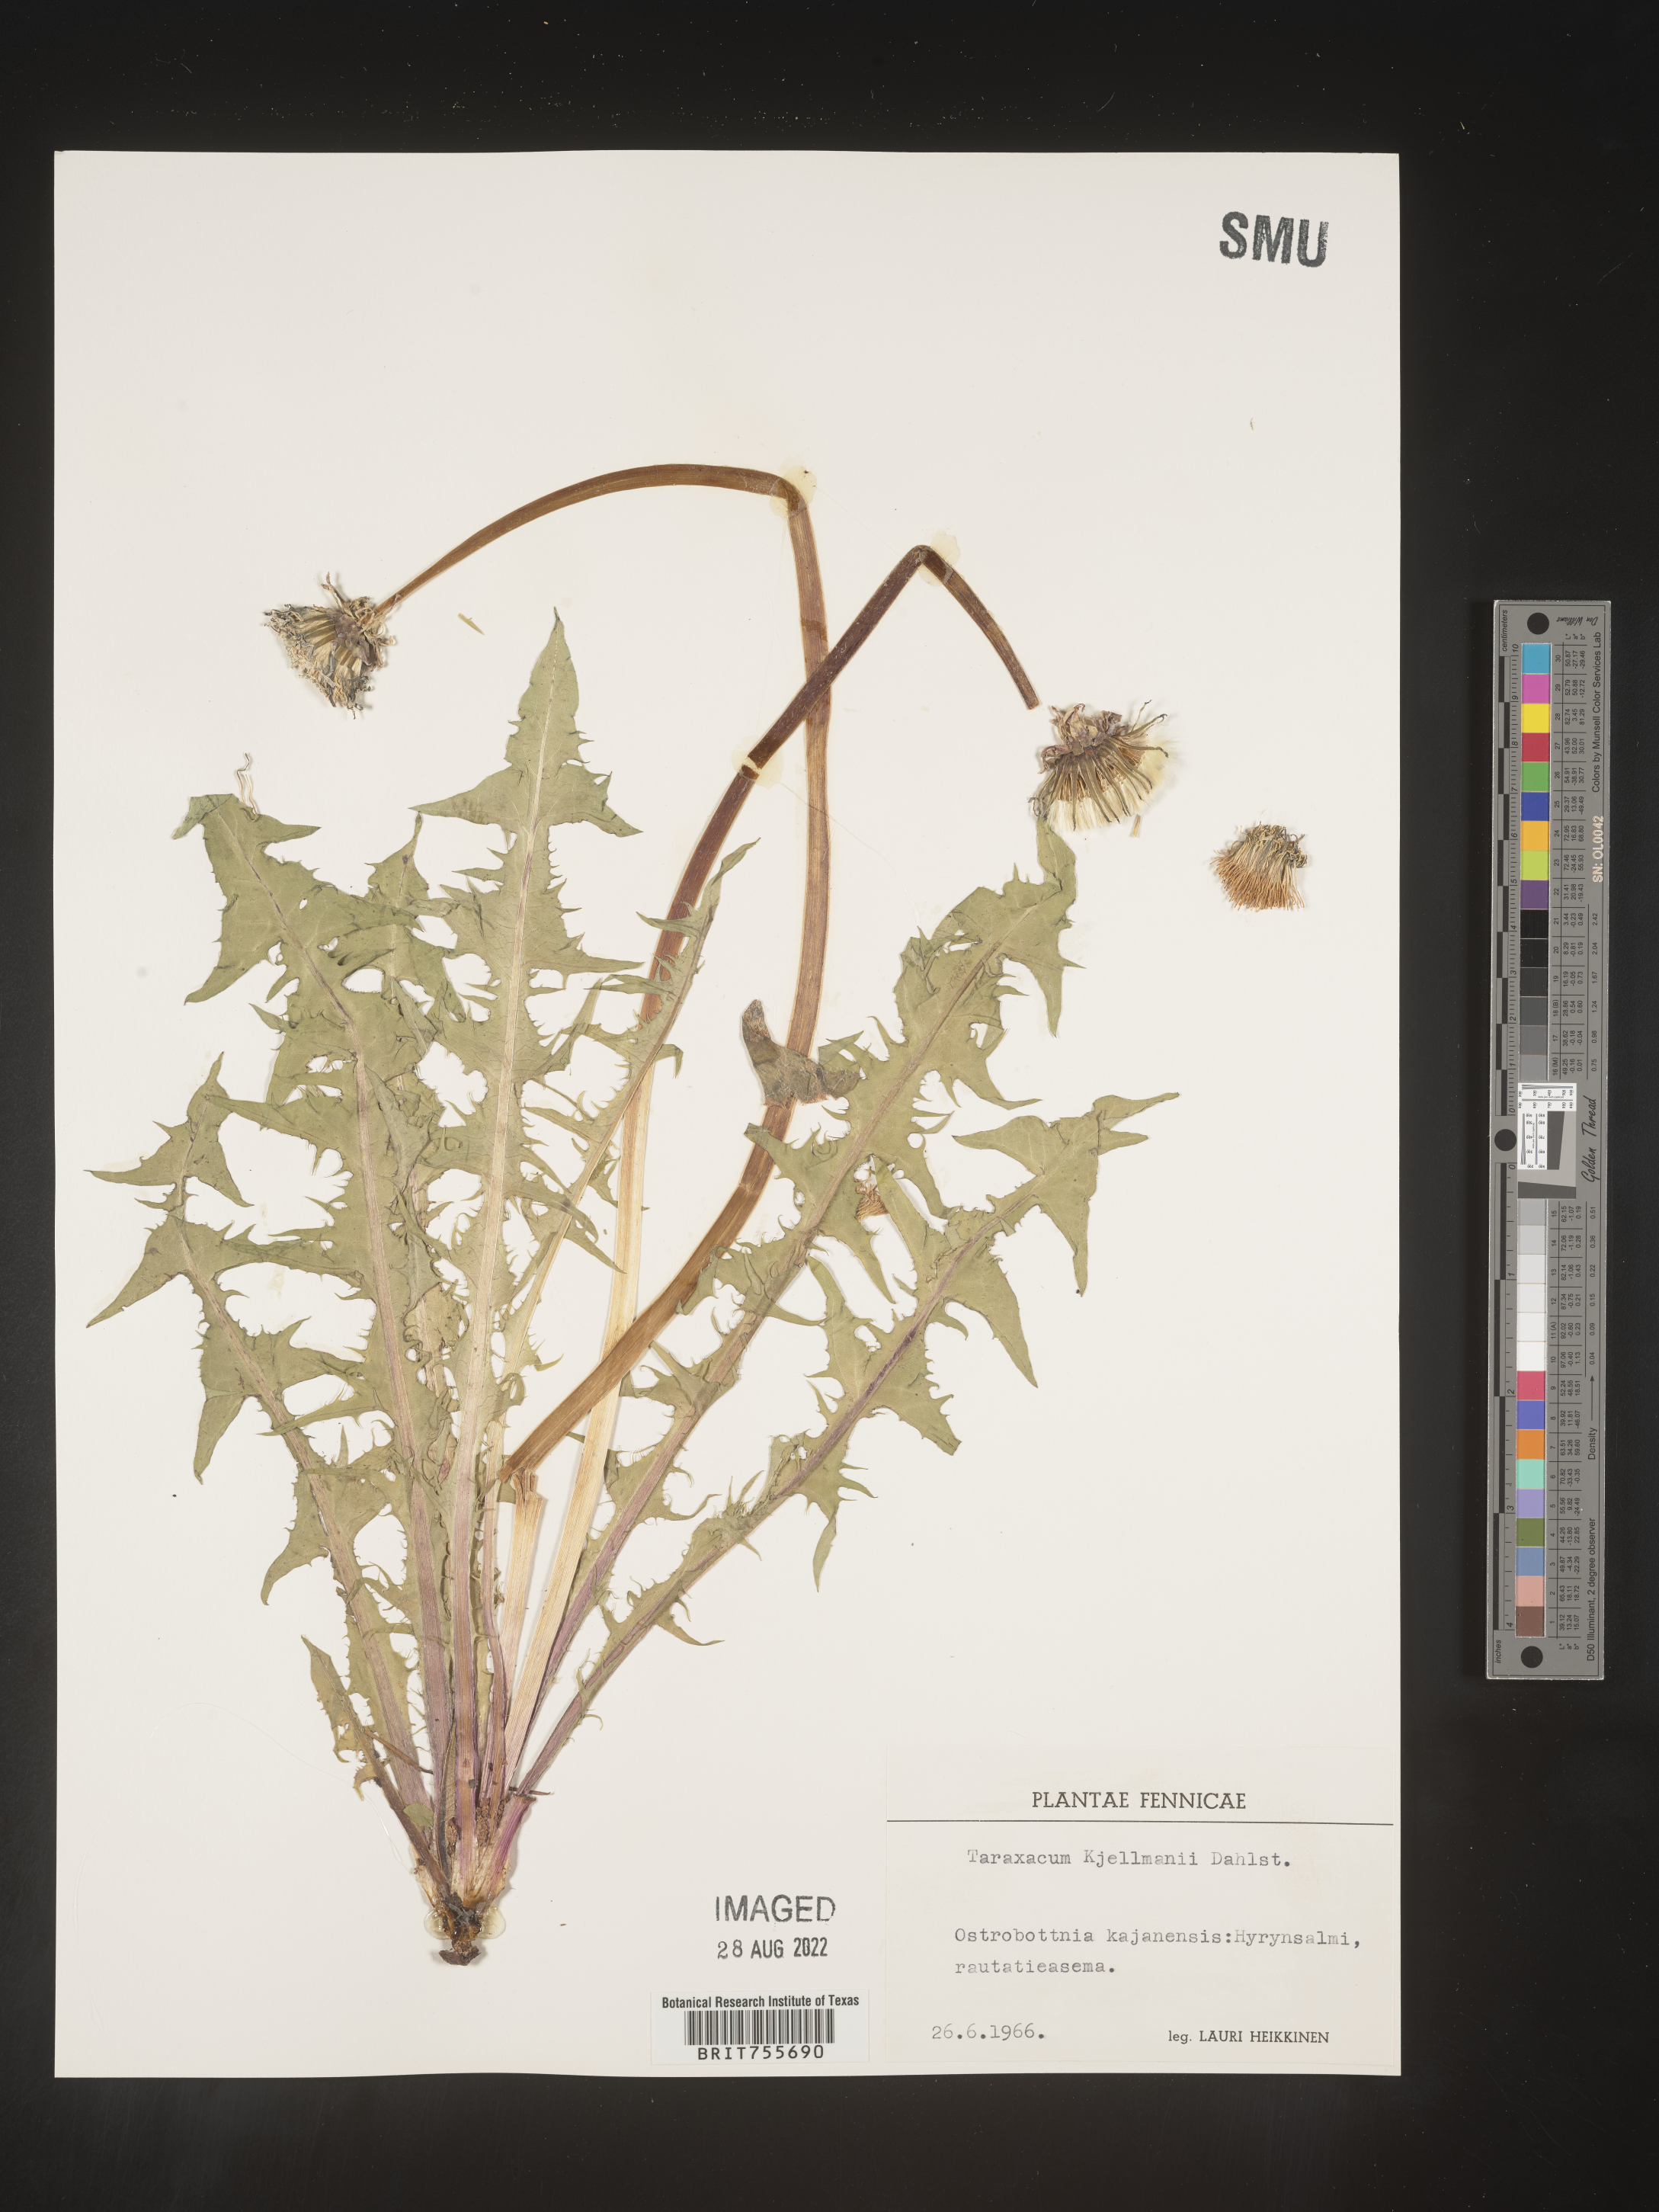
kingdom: Plantae
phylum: Tracheophyta
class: Magnoliopsida
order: Asterales
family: Asteraceae
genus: Taraxacum
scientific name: Taraxacum
